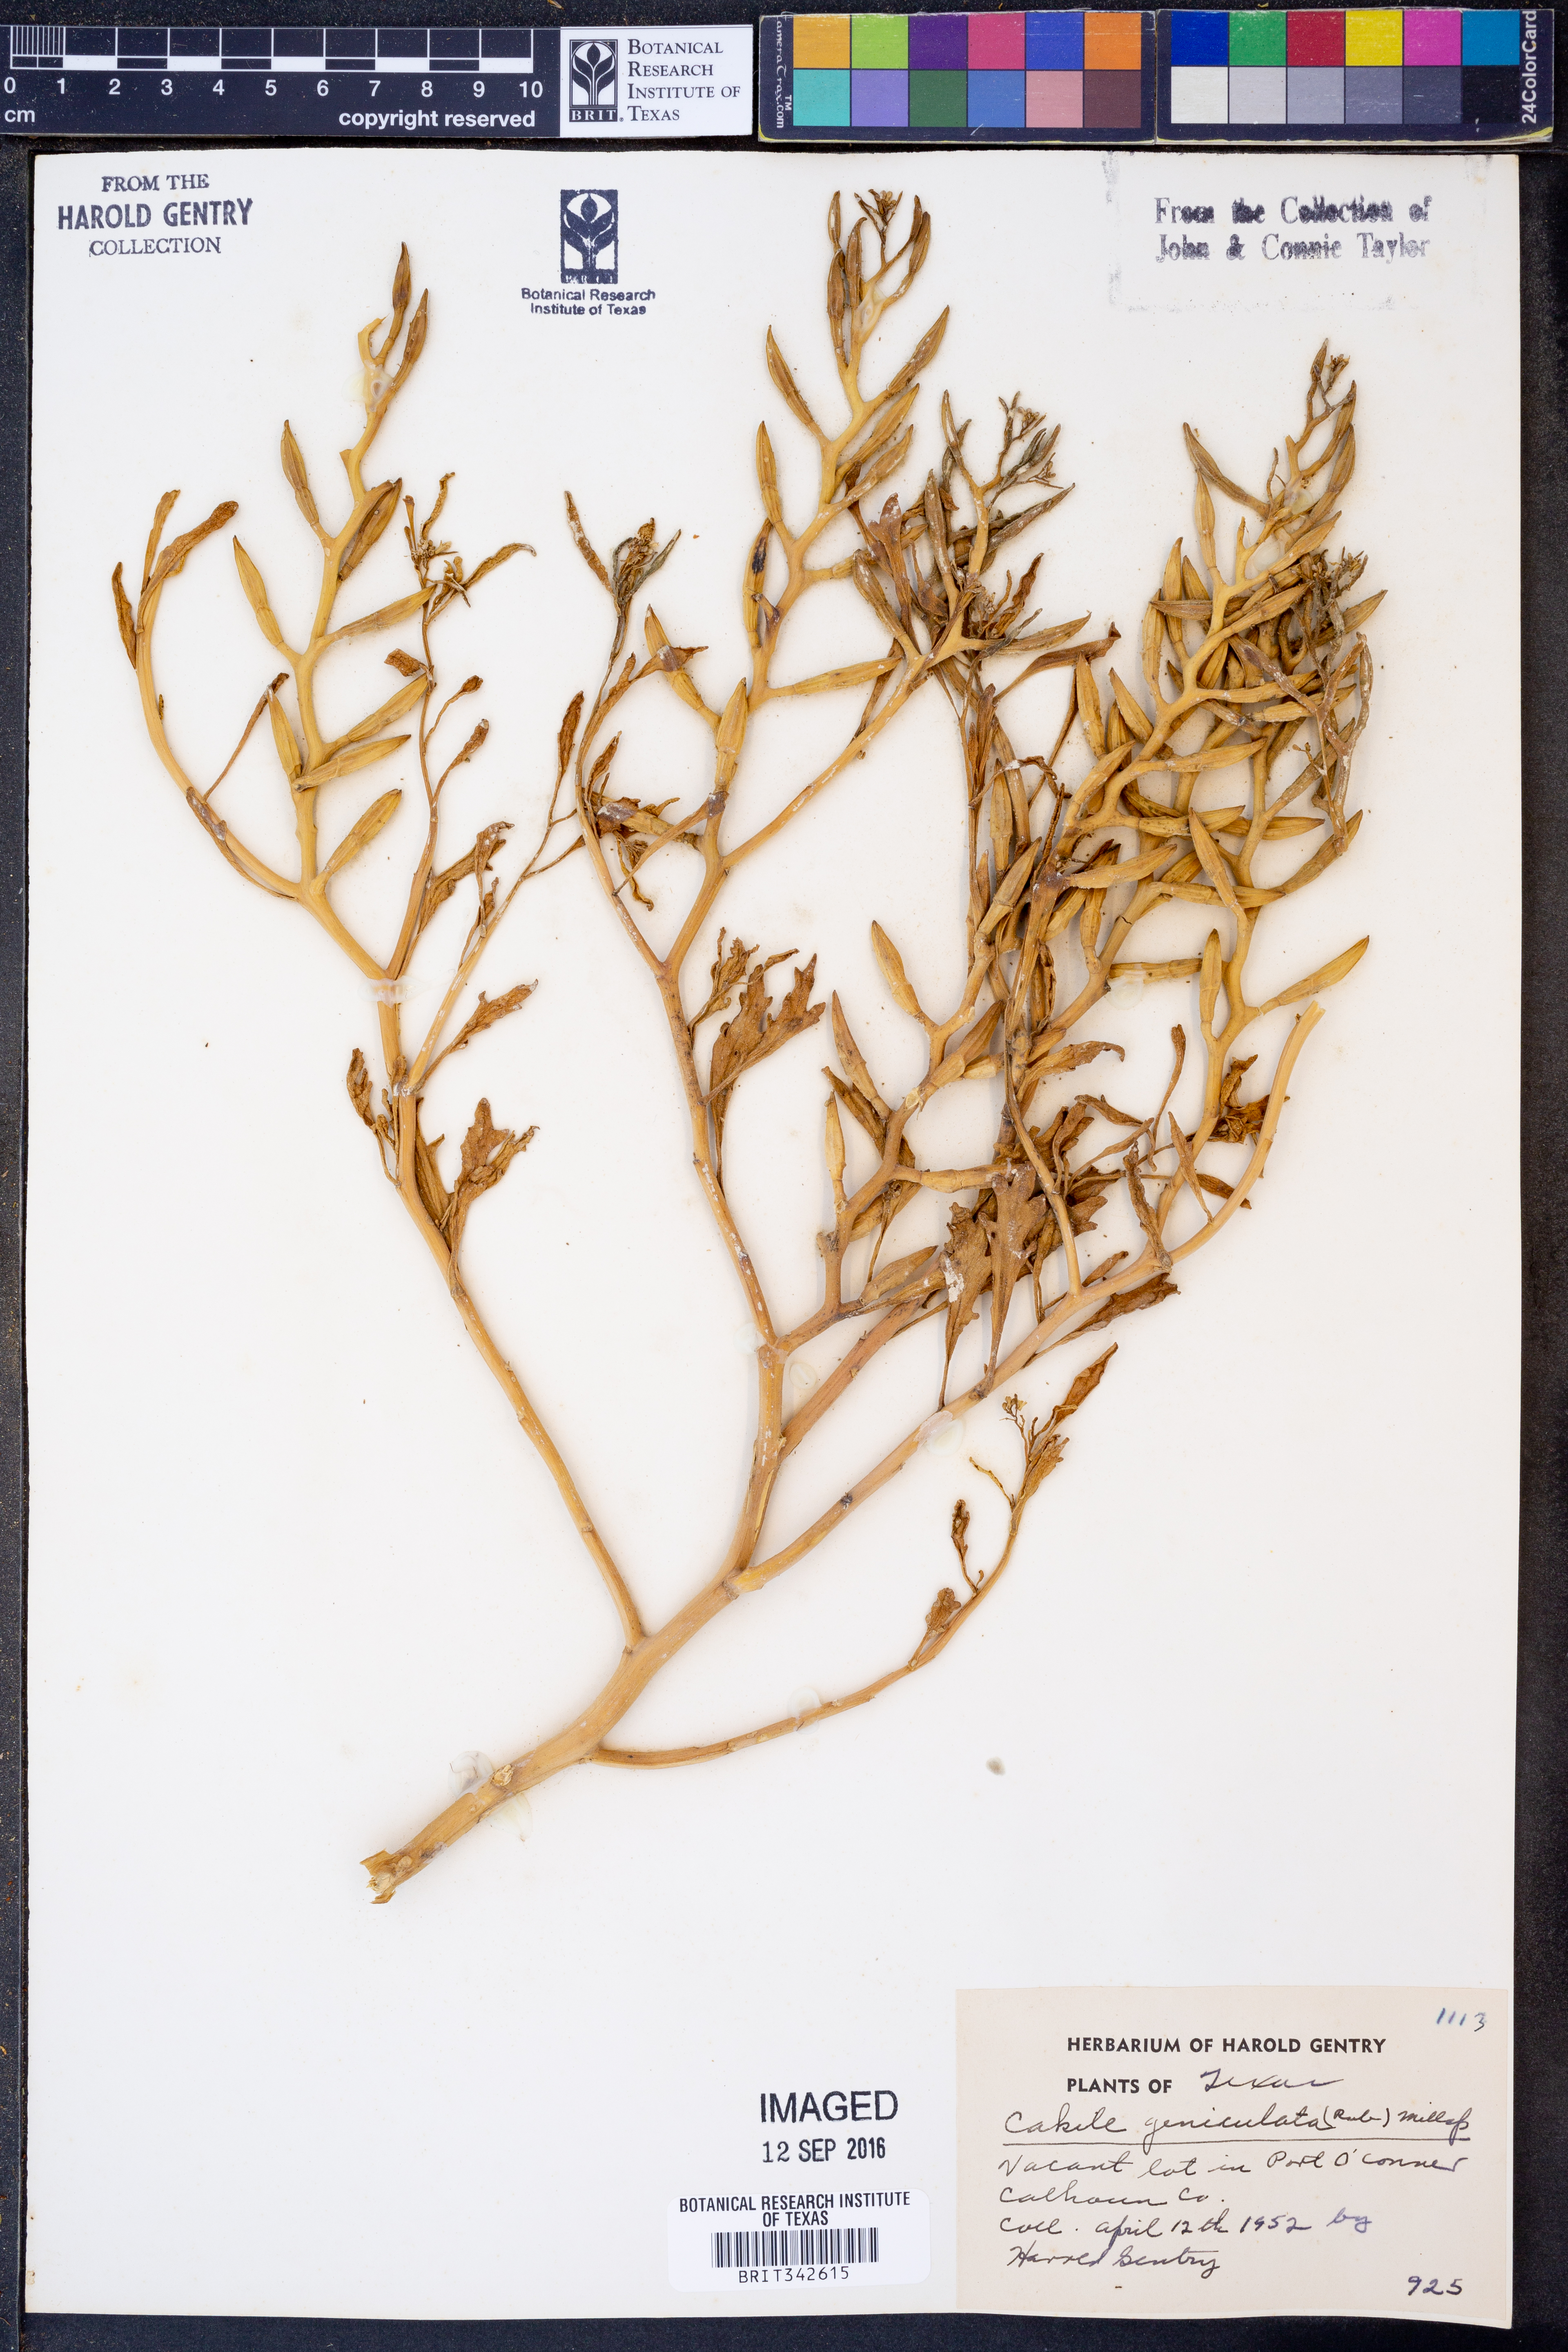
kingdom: Plantae
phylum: Tracheophyta
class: Magnoliopsida
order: Brassicales
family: Brassicaceae
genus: Cakile
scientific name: Cakile geniculata
